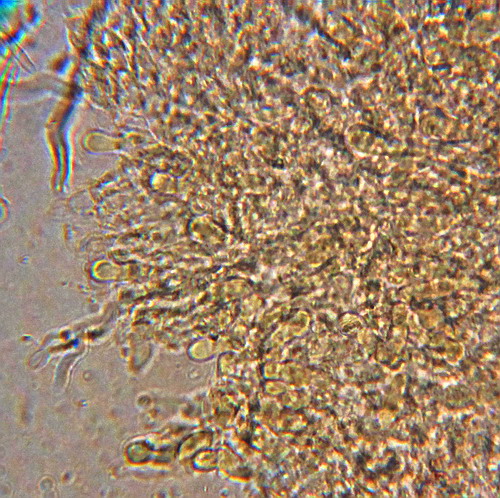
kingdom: Fungi
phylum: Basidiomycota
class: Agaricomycetes
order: Hymenochaetales
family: Schizoporaceae
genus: Xylodon
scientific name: Xylodon subtropicus
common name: labyrint-tandsvamp
